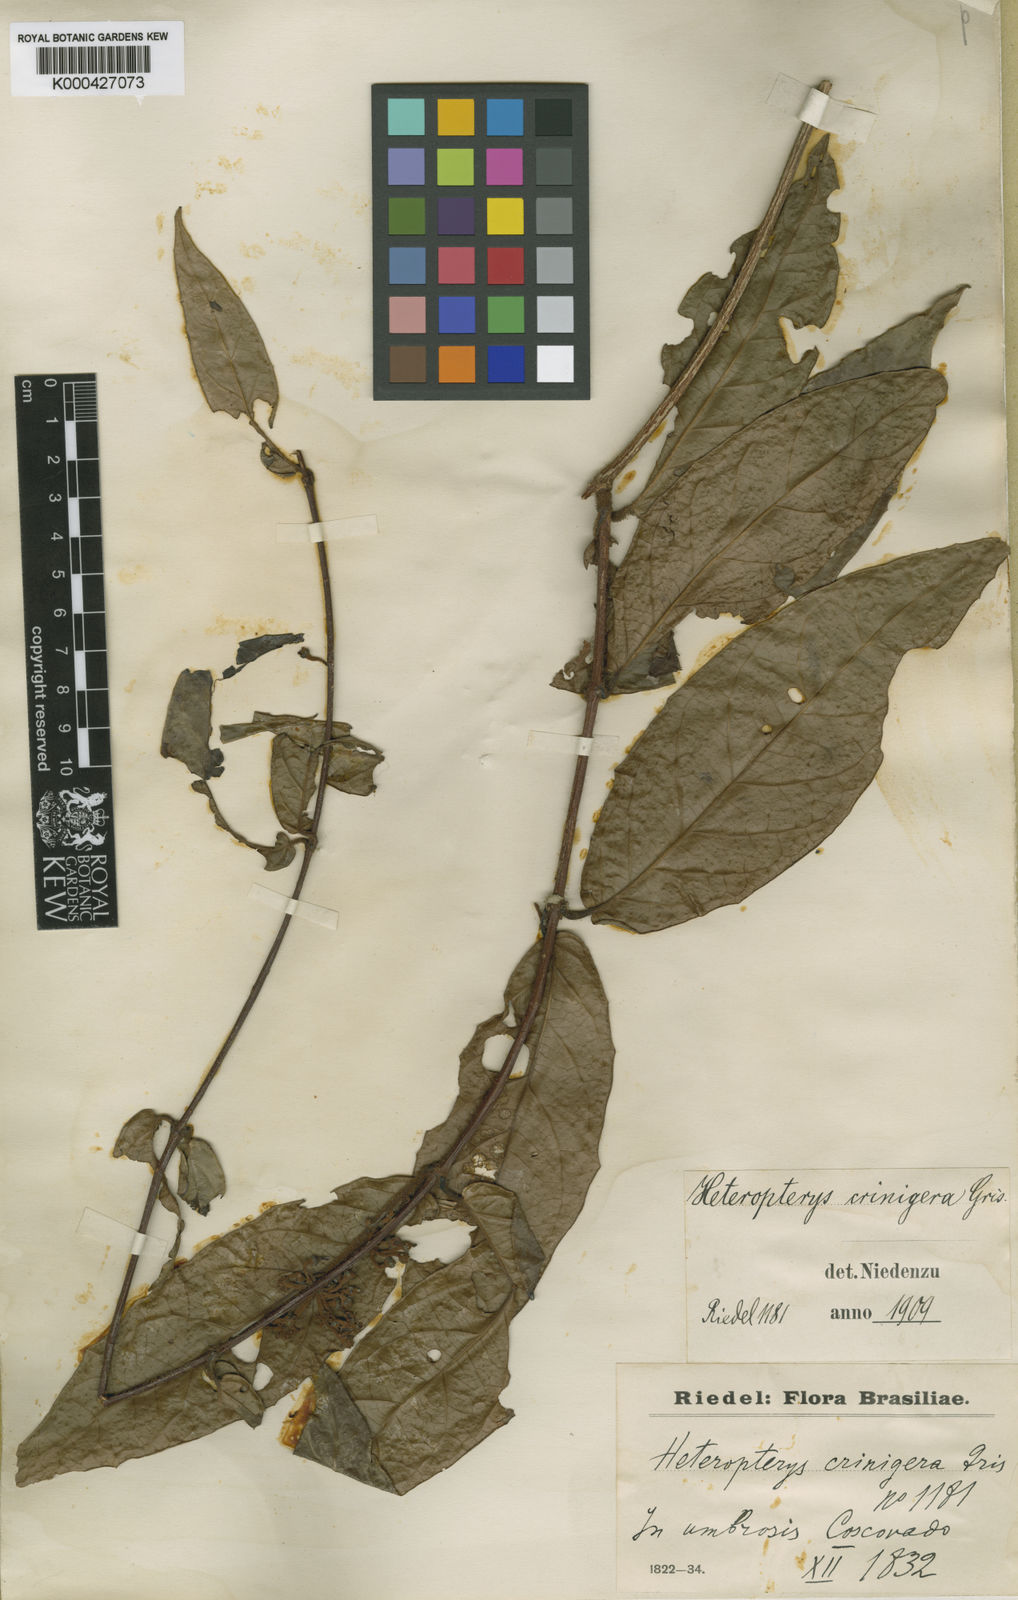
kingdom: Plantae
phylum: Tracheophyta
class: Magnoliopsida
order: Malpighiales
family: Malpighiaceae
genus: Heteropterys
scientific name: Heteropterys crinigera
